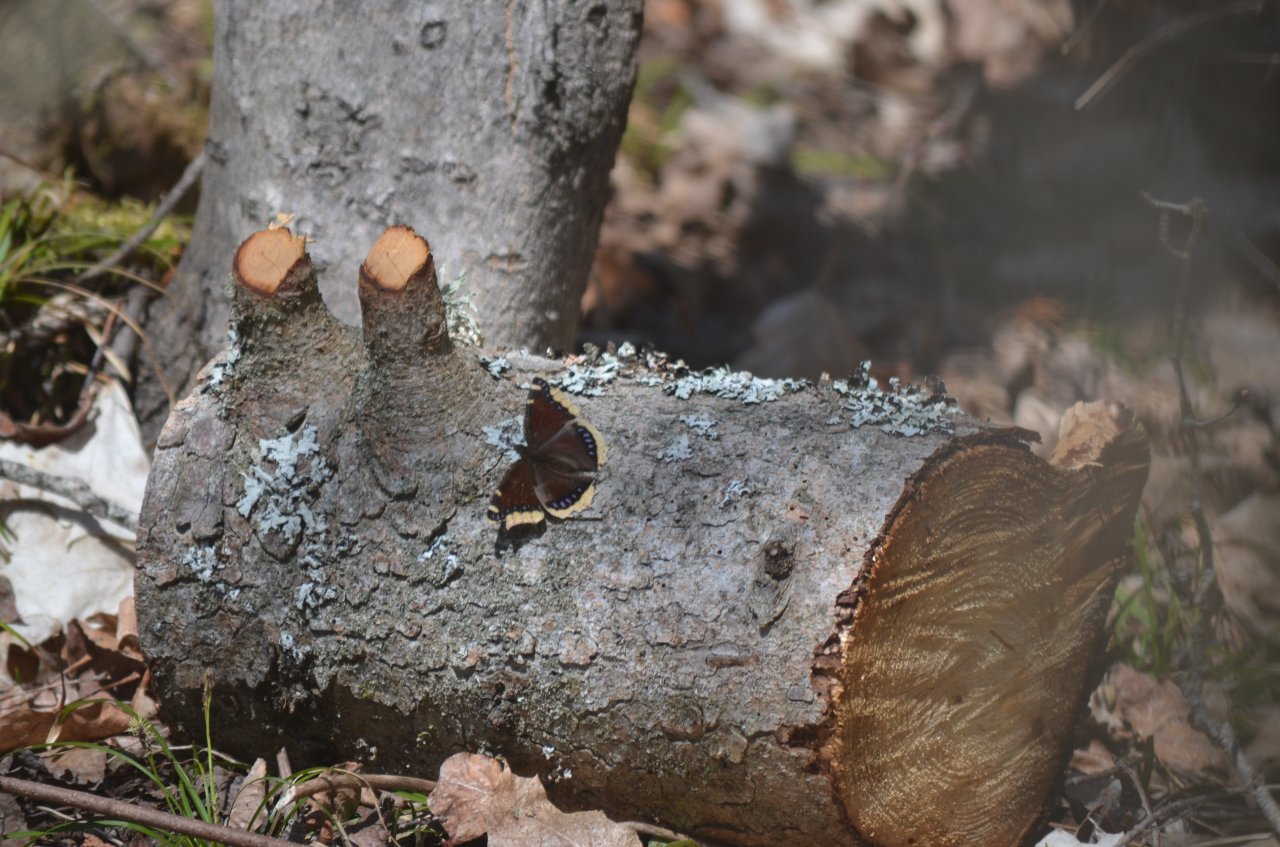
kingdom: Animalia
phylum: Arthropoda
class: Insecta
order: Lepidoptera
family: Nymphalidae
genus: Nymphalis
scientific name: Nymphalis antiopa
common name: Mourning Cloak
